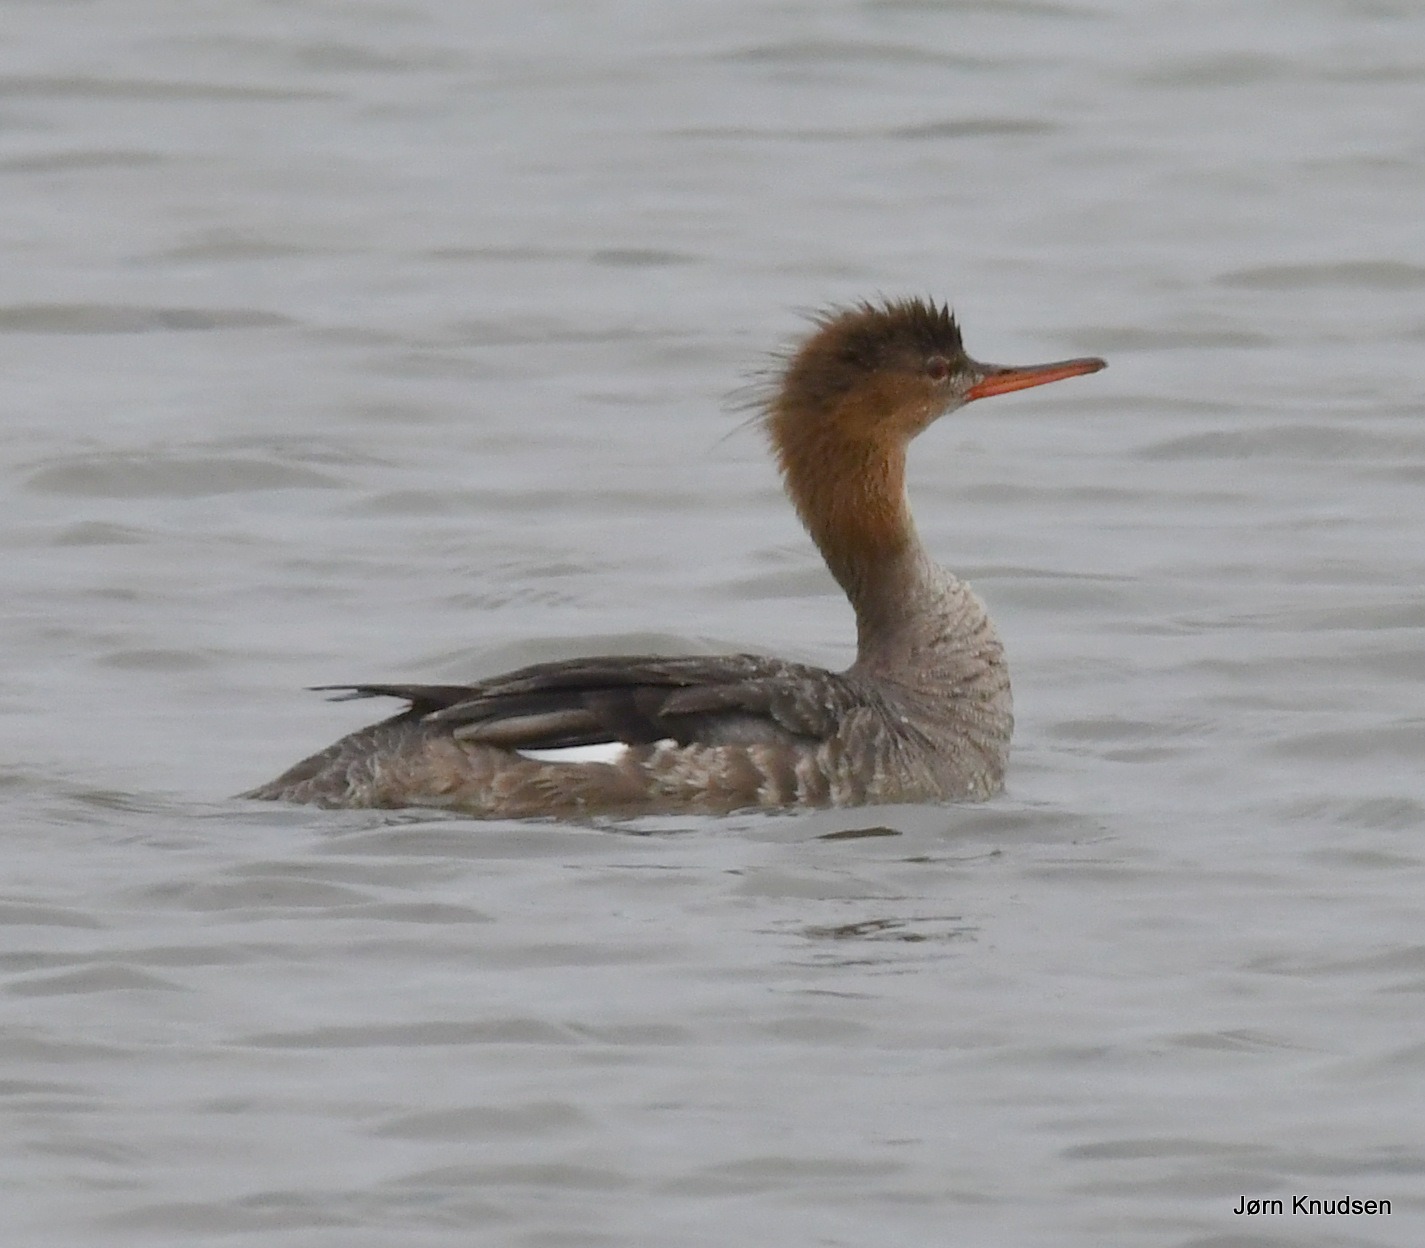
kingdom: Animalia
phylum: Chordata
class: Aves
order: Anseriformes
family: Anatidae
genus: Mergus
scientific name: Mergus serrator
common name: Toppet skallesluger
